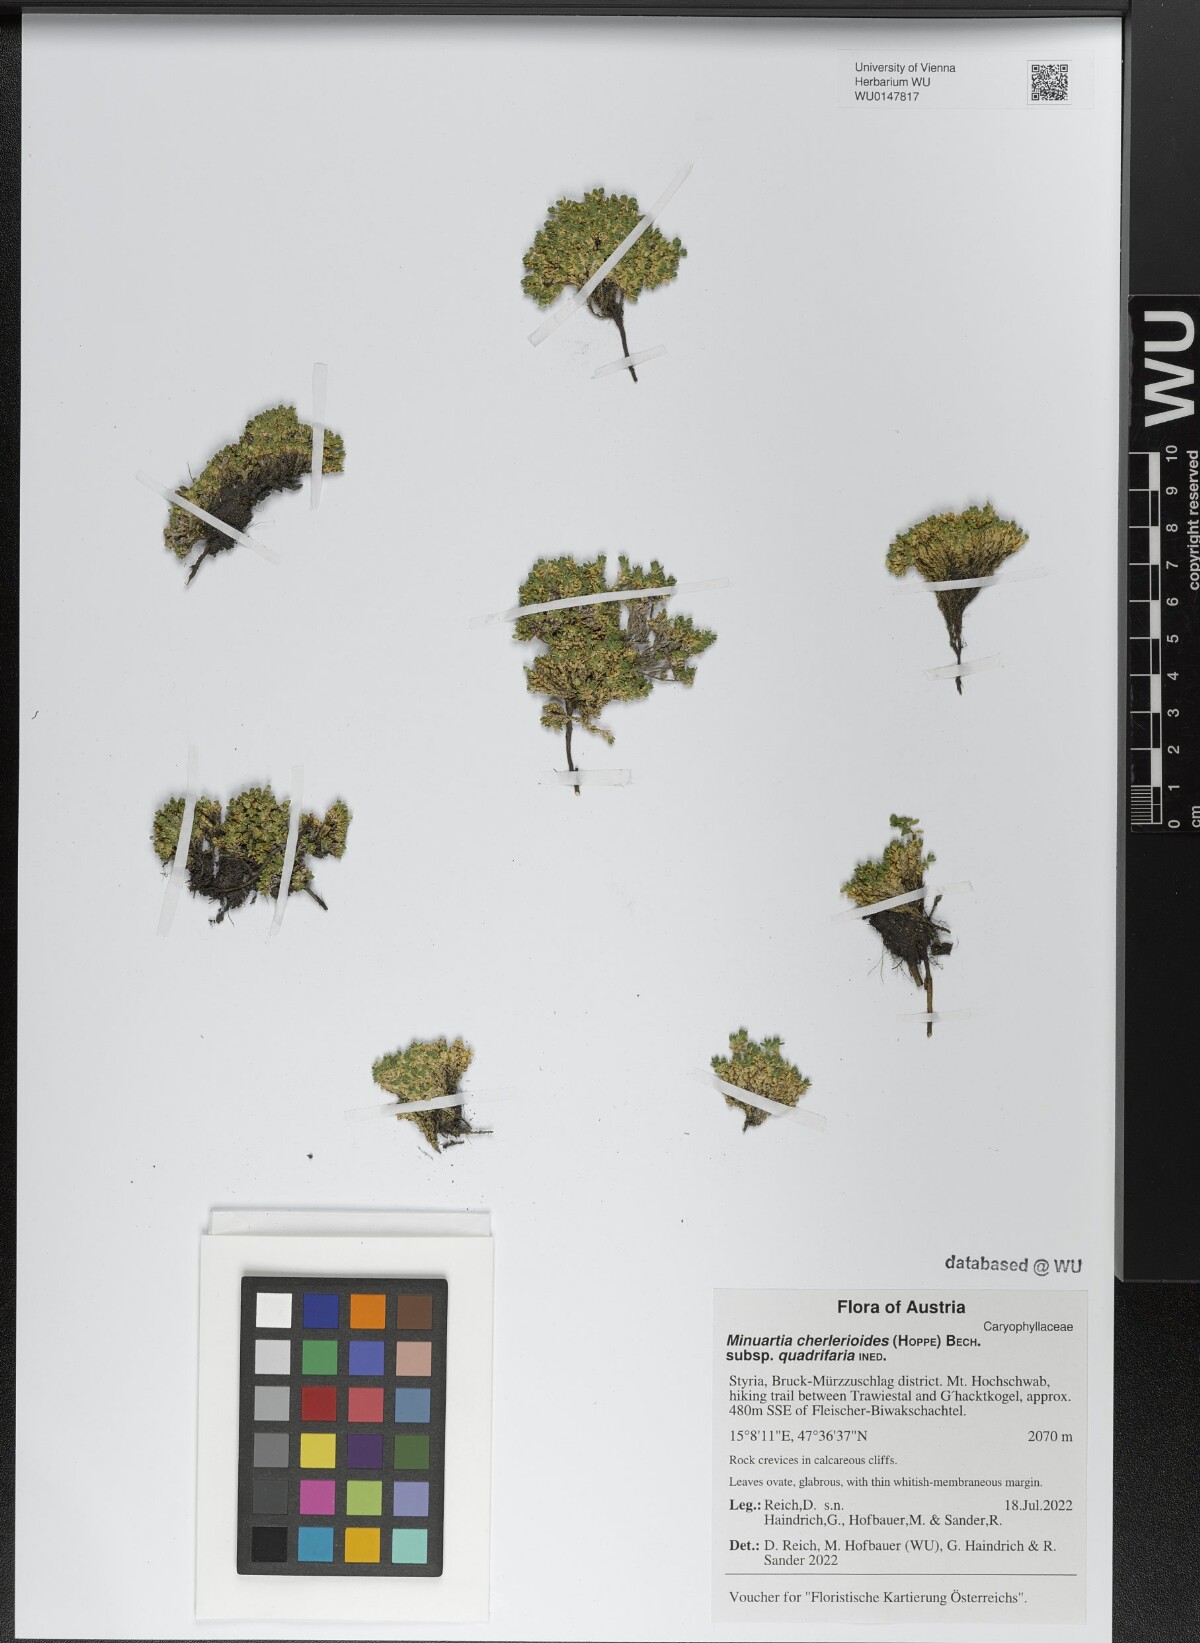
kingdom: Plantae
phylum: Tracheophyta
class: Magnoliopsida
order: Caryophyllales
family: Caryophyllaceae
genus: Facchinia
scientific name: Facchinia cherlerioides
